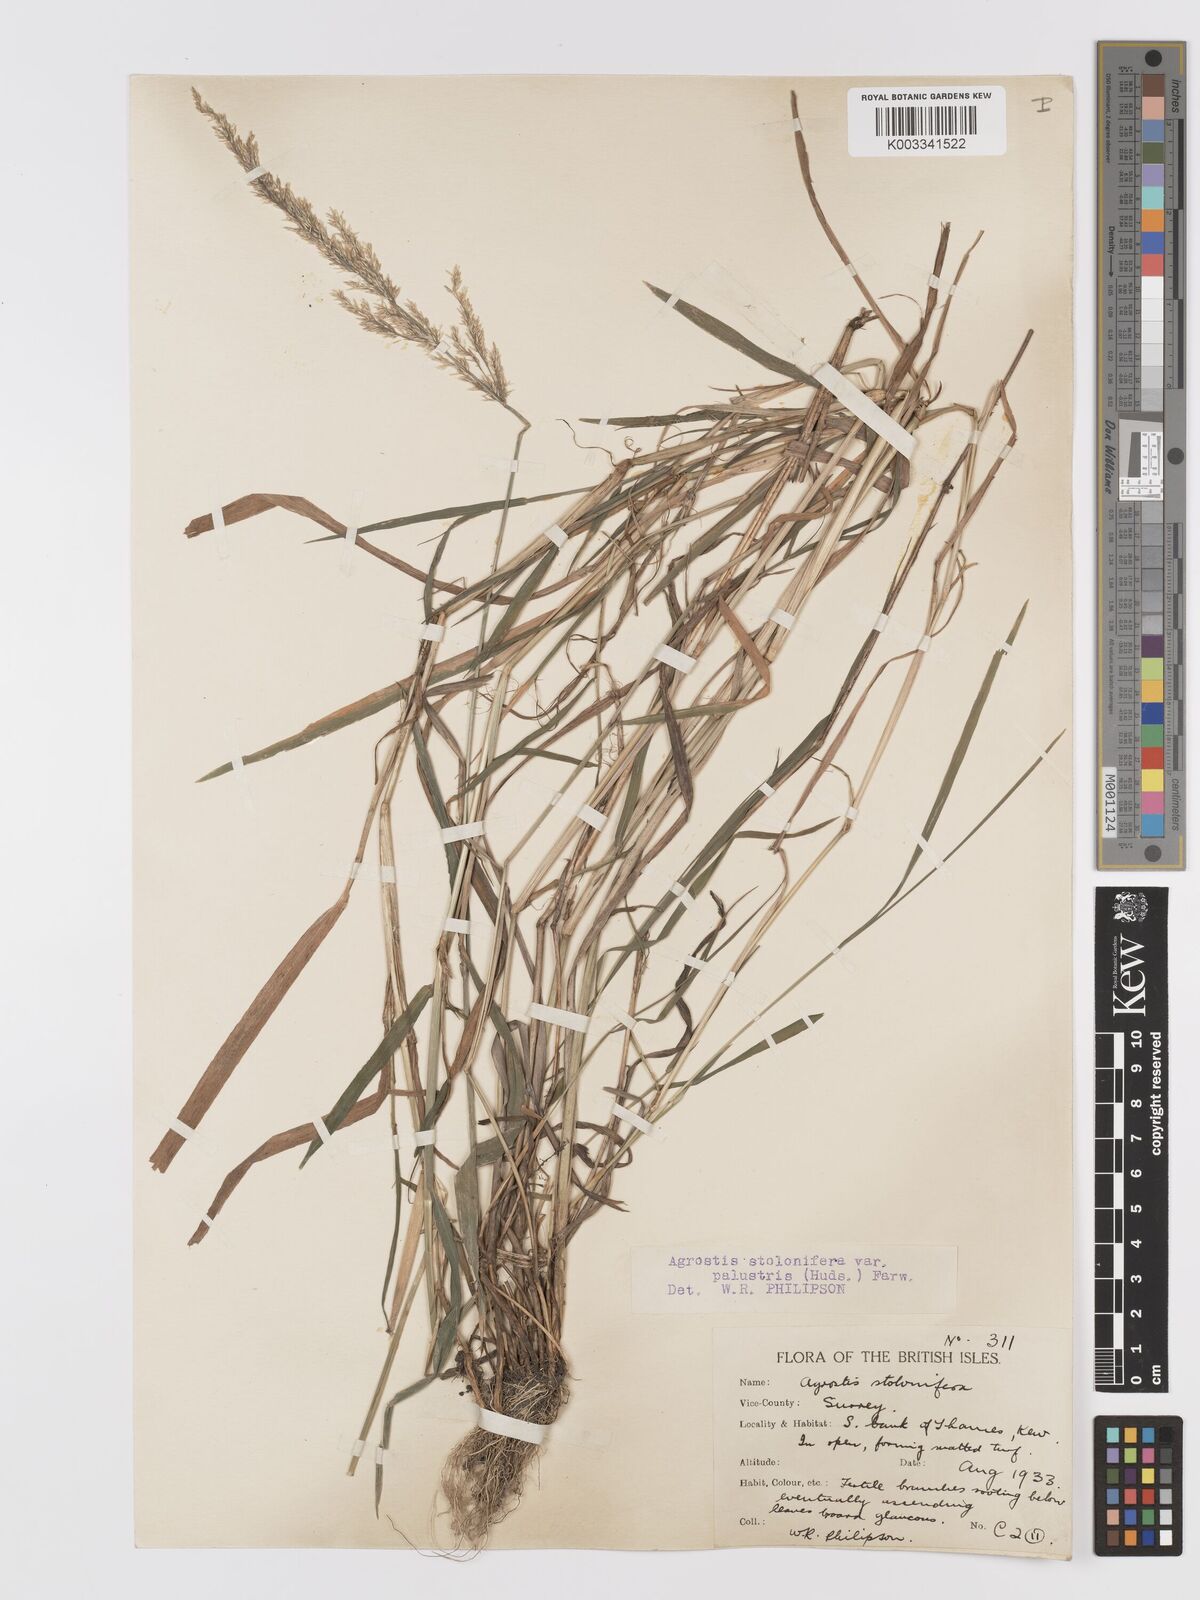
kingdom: Plantae
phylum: Tracheophyta
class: Liliopsida
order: Poales
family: Poaceae
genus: Agrostis
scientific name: Agrostis stolonifera
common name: Creeping bentgrass
